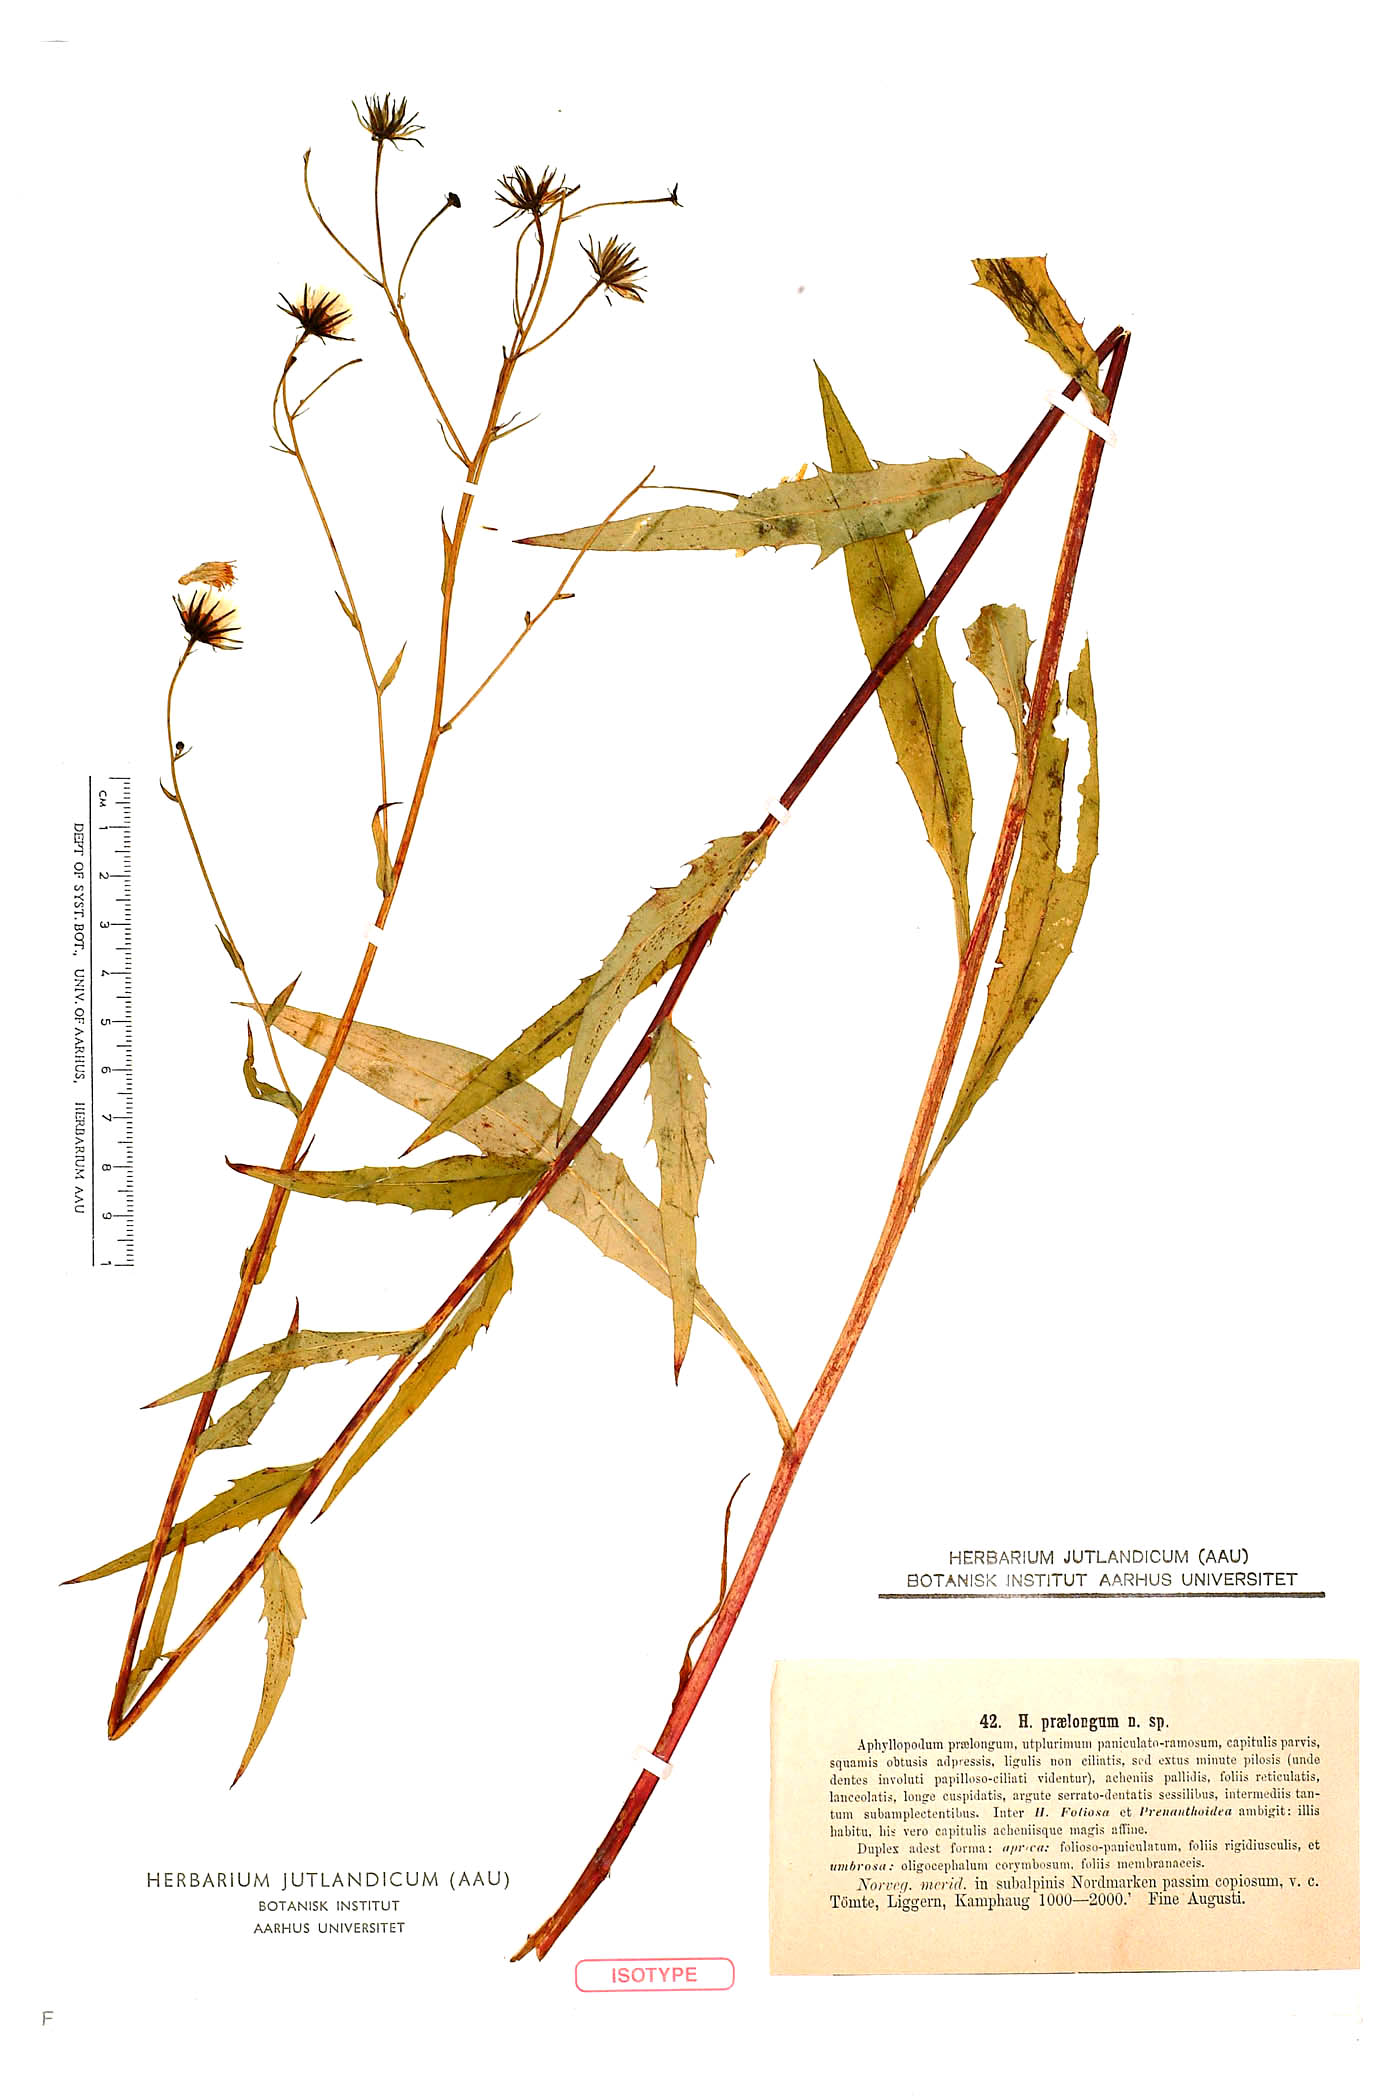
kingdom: Plantae
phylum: Tracheophyta
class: Magnoliopsida
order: Asterales
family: Asteraceae
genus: Hieracium
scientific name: Hieracium praelongum
